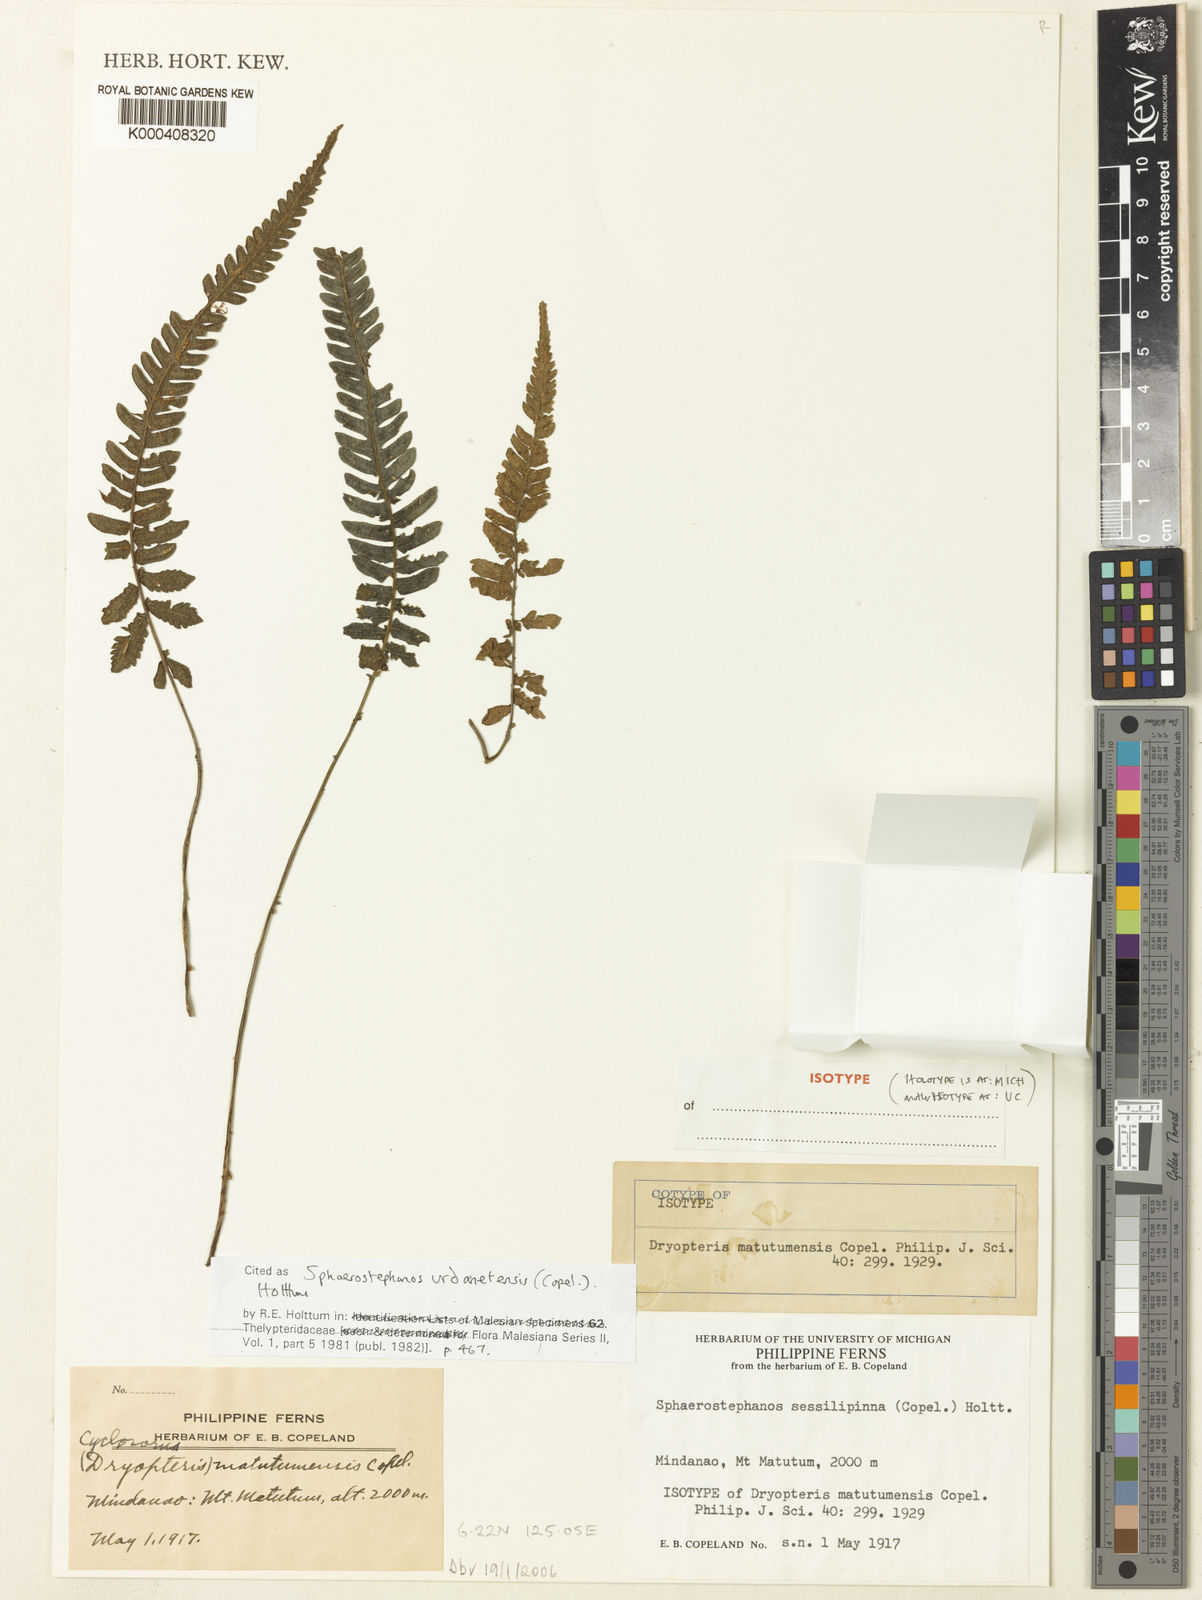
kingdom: Plantae
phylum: Tracheophyta
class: Polypodiopsida
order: Polypodiales
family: Thelypteridaceae
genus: Sphaerostephanos
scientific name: Sphaerostephanos urdanetensis
